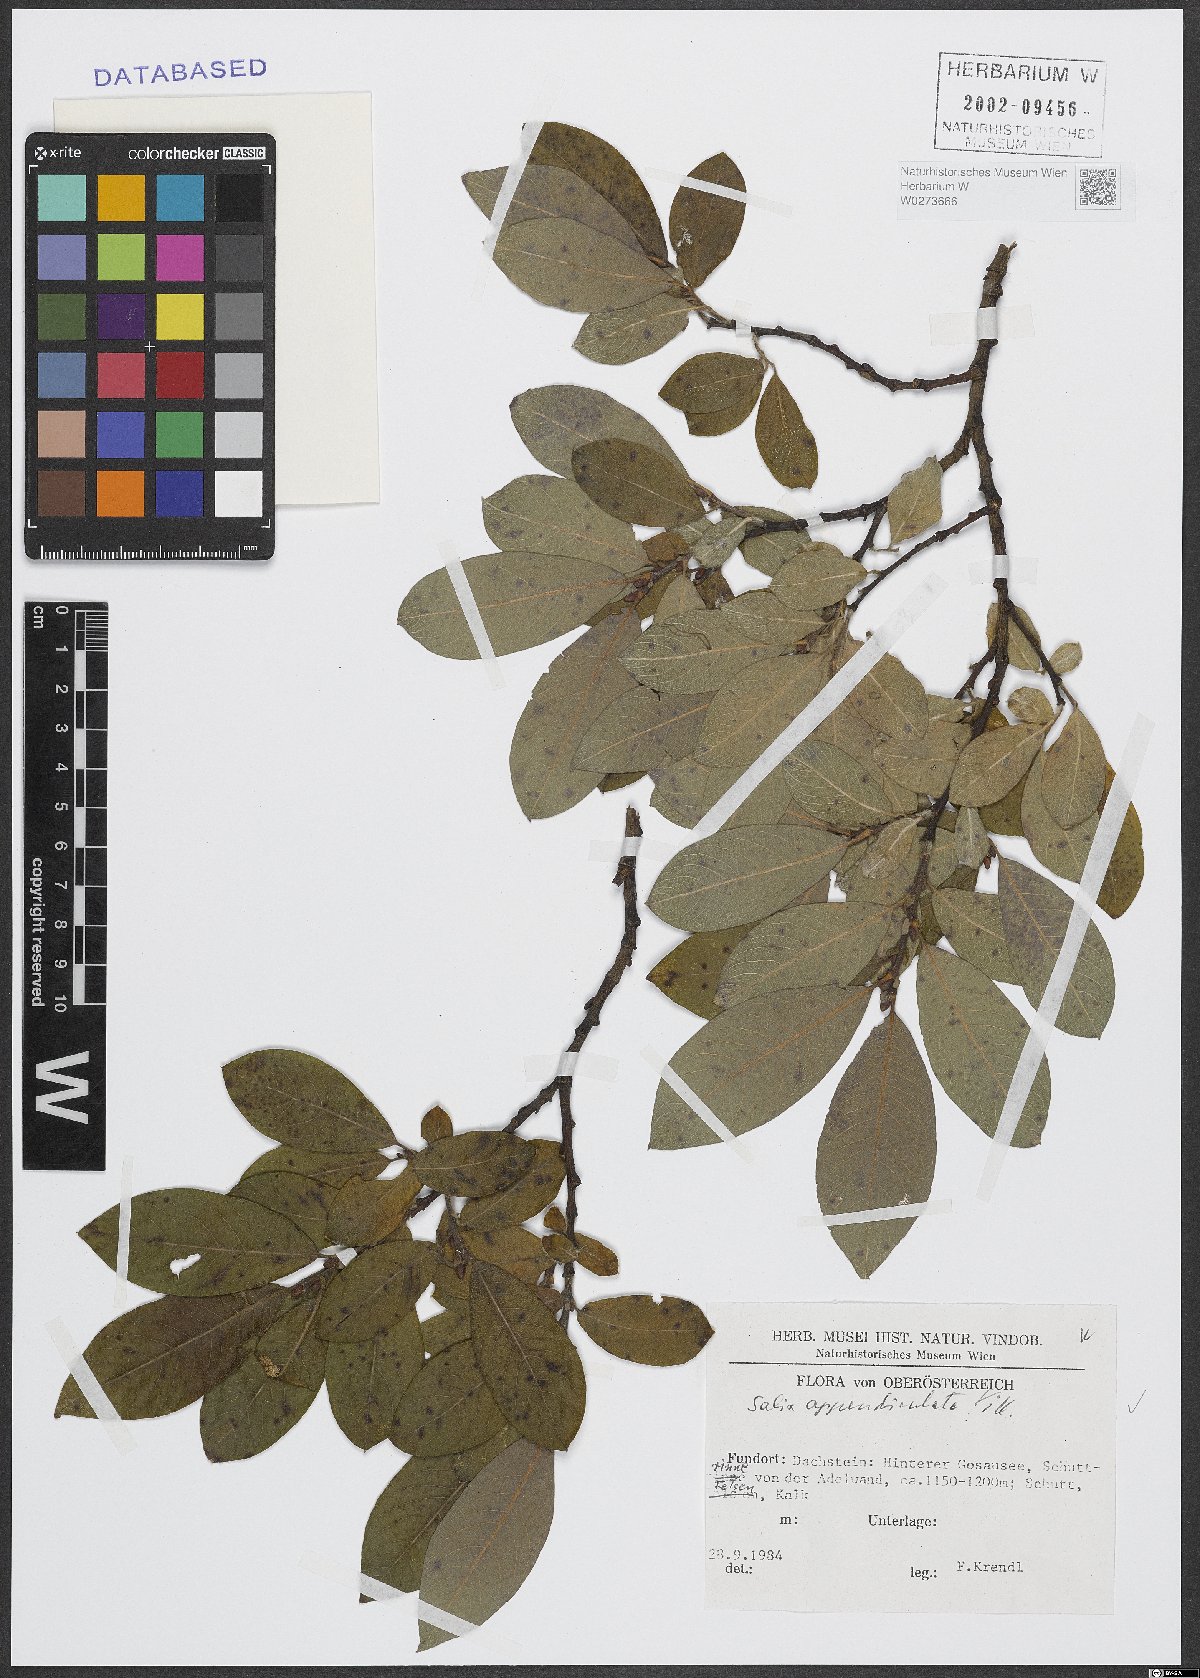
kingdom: Plantae
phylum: Tracheophyta
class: Magnoliopsida
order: Malpighiales
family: Salicaceae
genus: Salix
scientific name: Salix appendiculata
